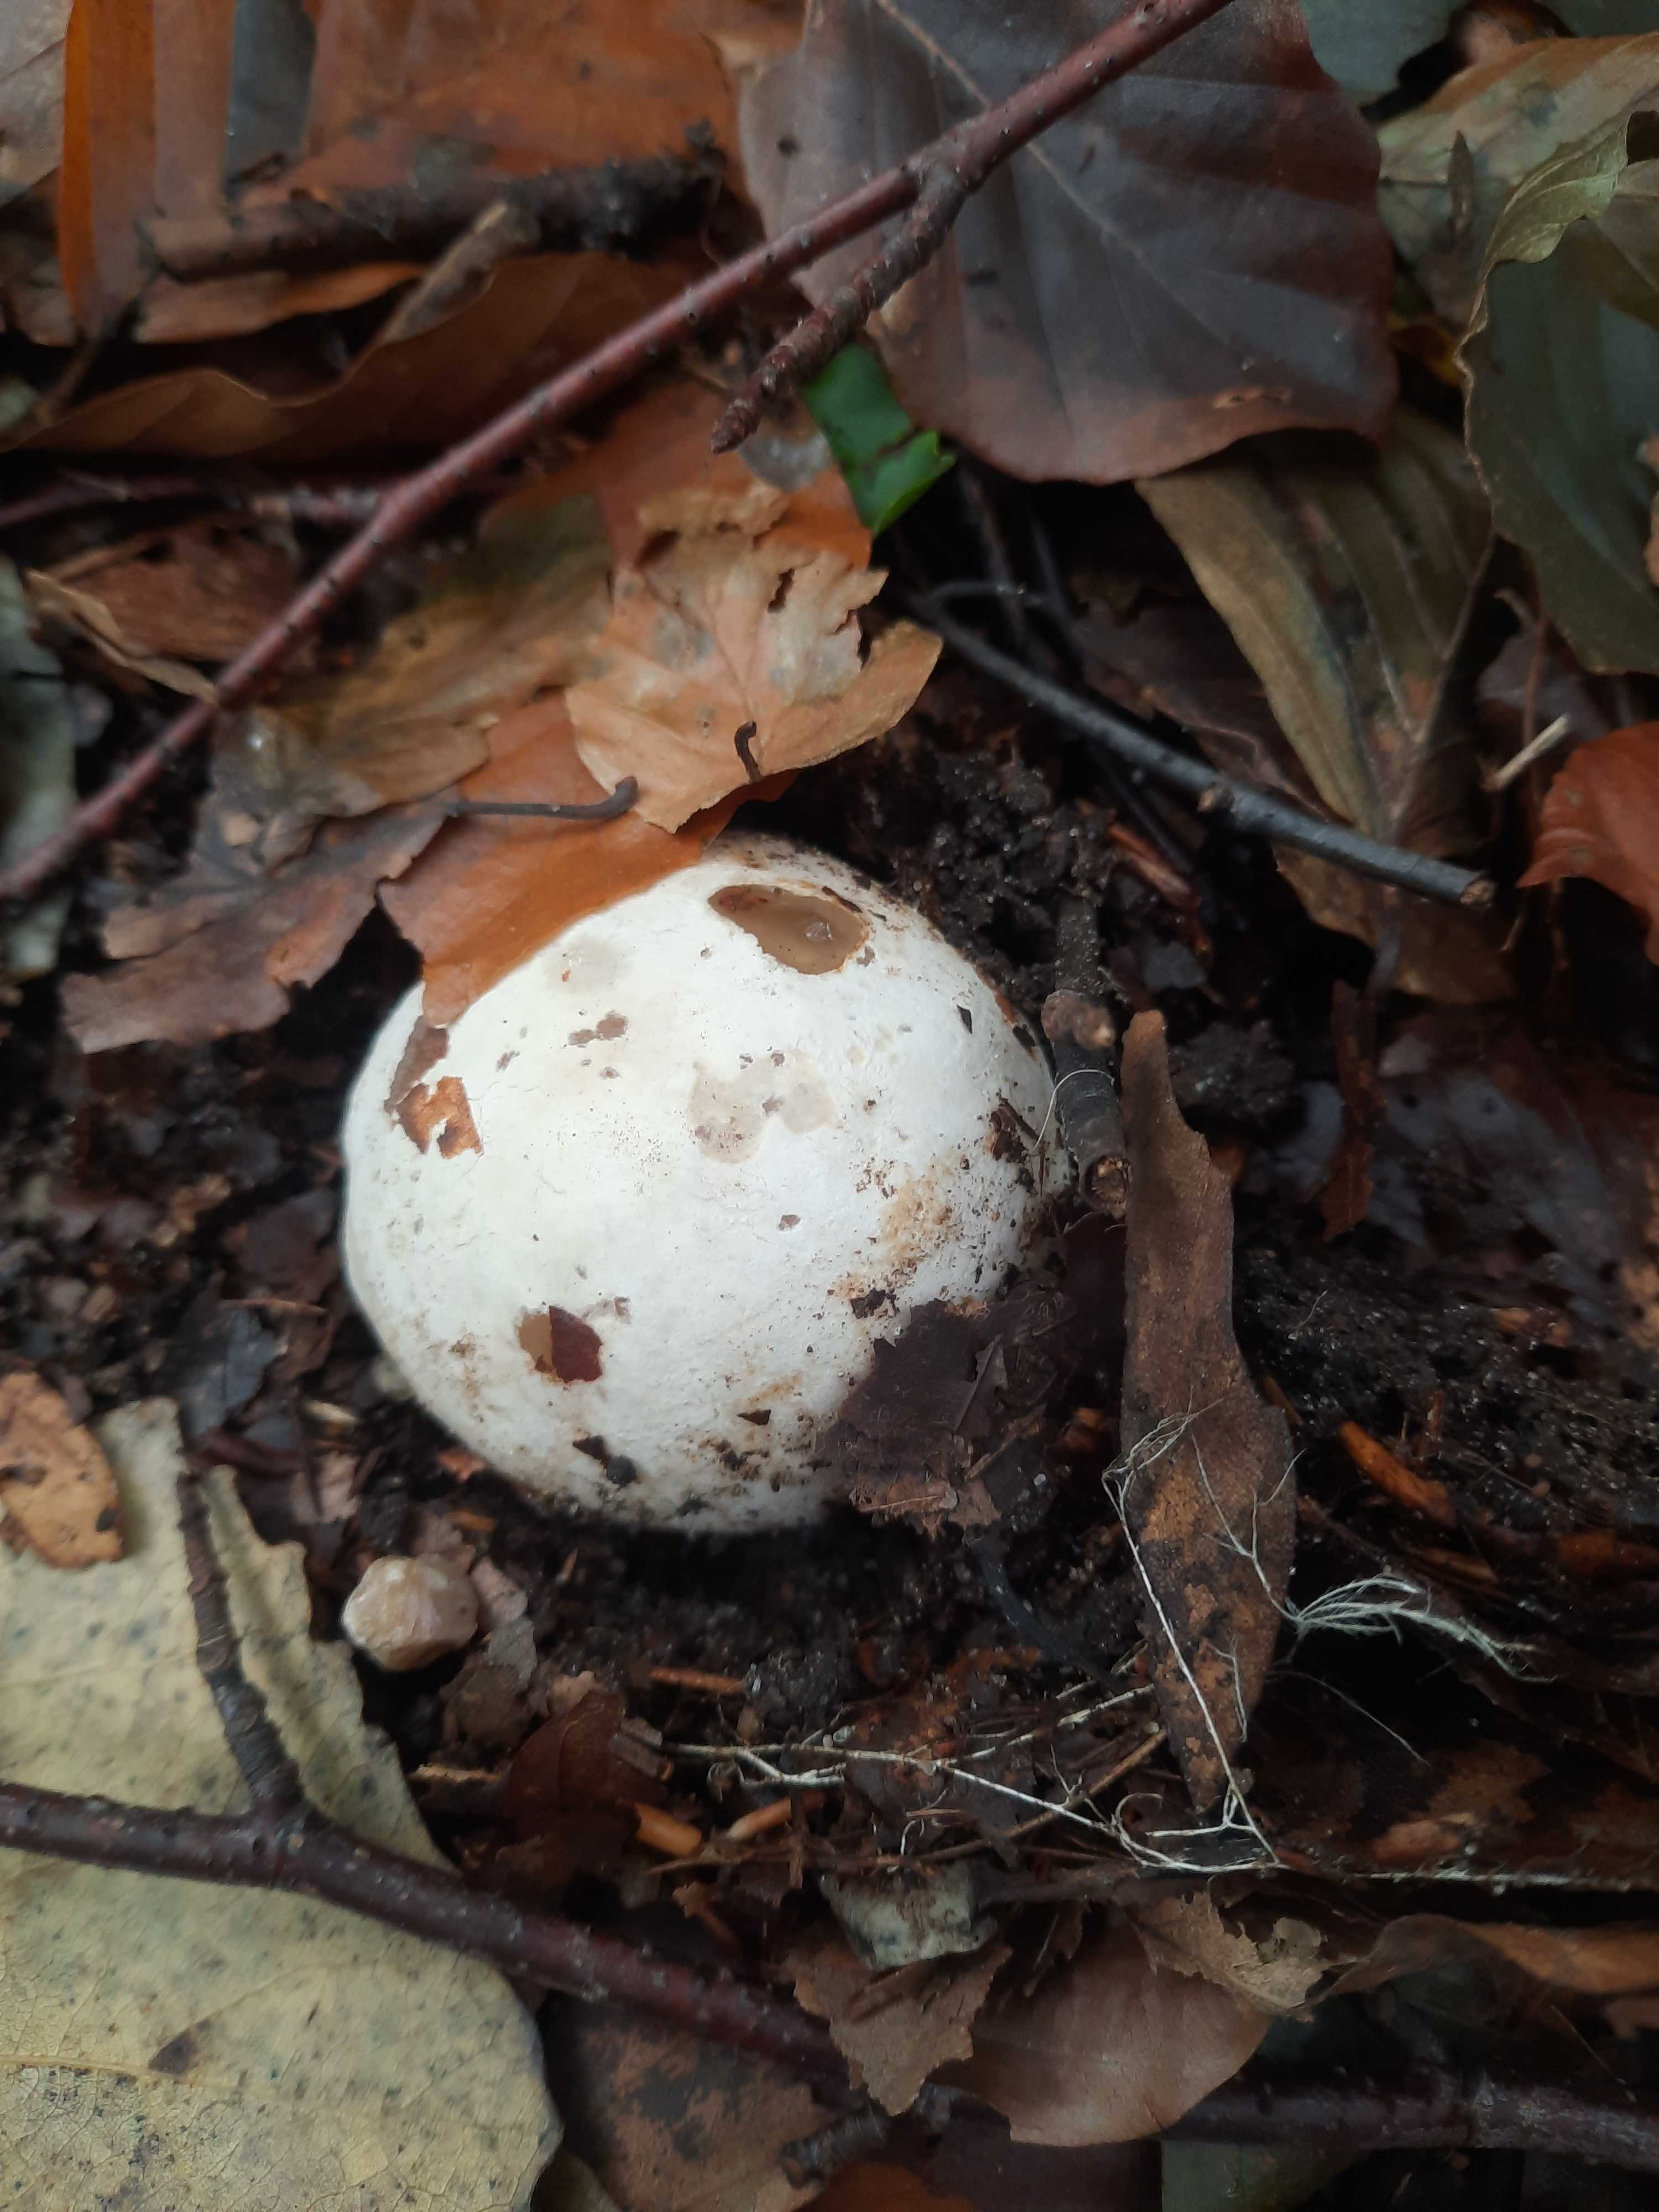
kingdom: Fungi
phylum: Basidiomycota
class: Agaricomycetes
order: Phallales
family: Phallaceae
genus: Phallus
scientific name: Phallus impudicus
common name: almindelig stinksvamp
